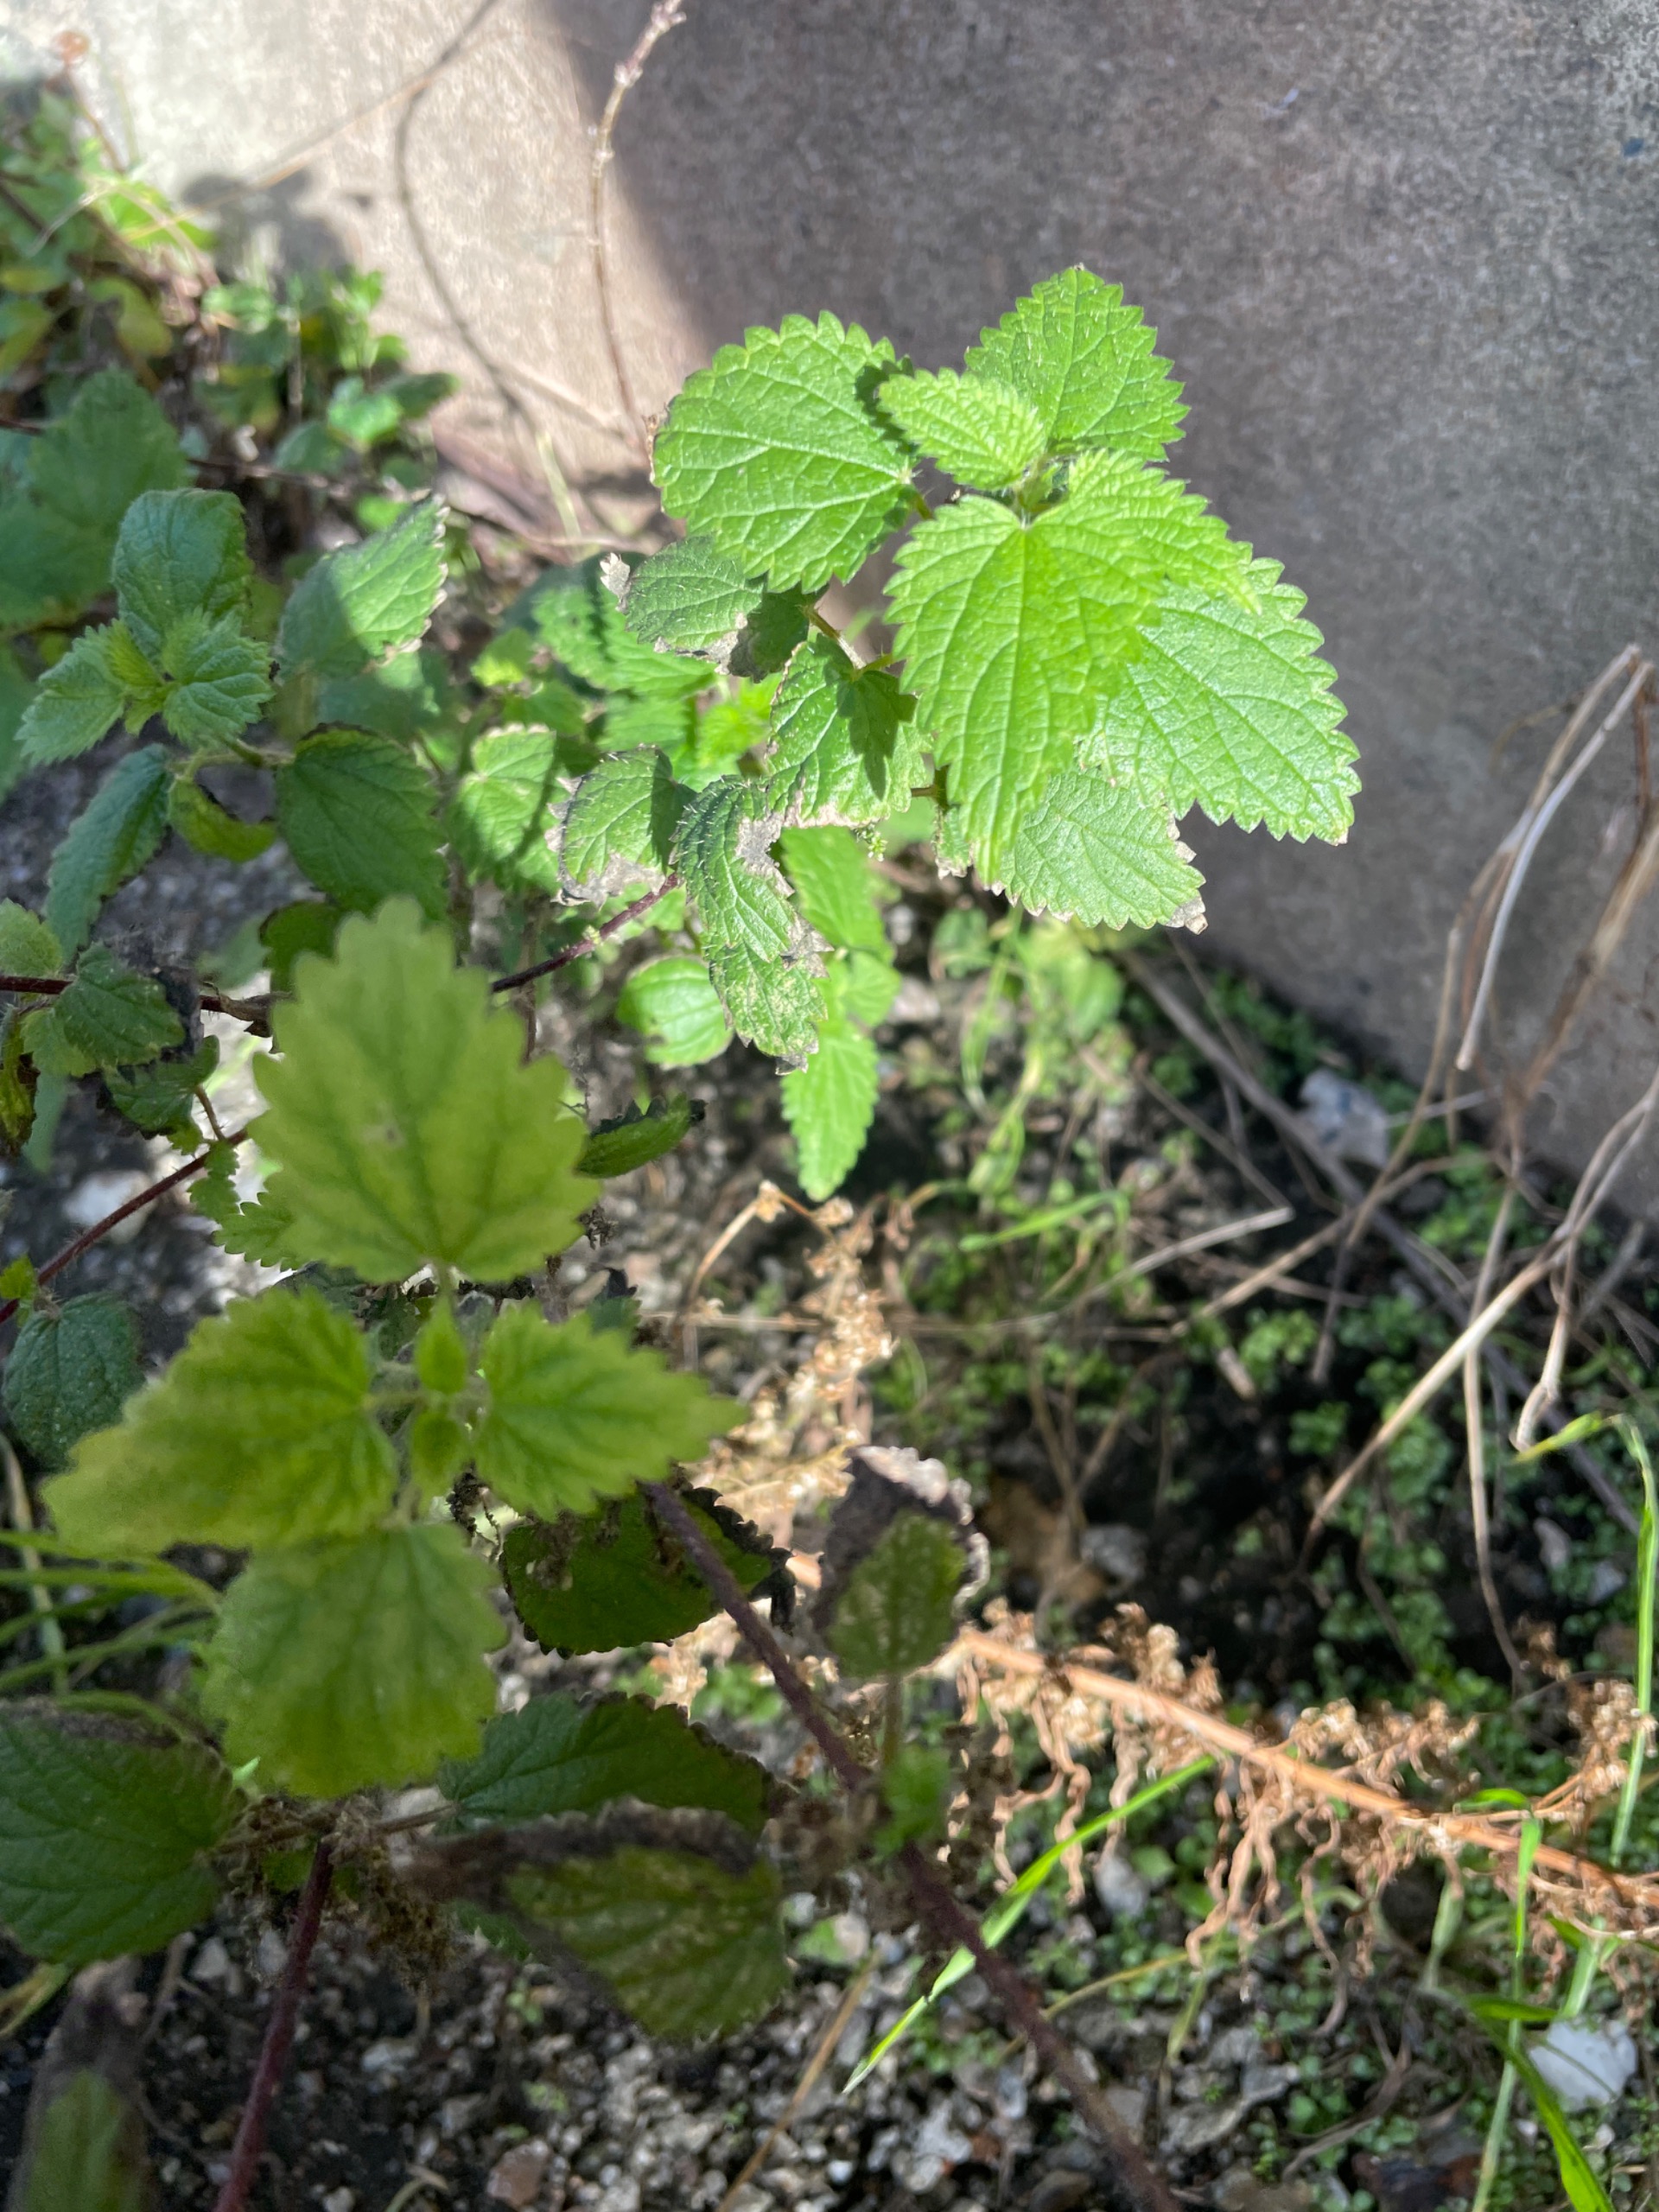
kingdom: Plantae
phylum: Tracheophyta
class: Magnoliopsida
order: Rosales
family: Urticaceae
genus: Urtica
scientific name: Urtica dioica
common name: Stor nælde
